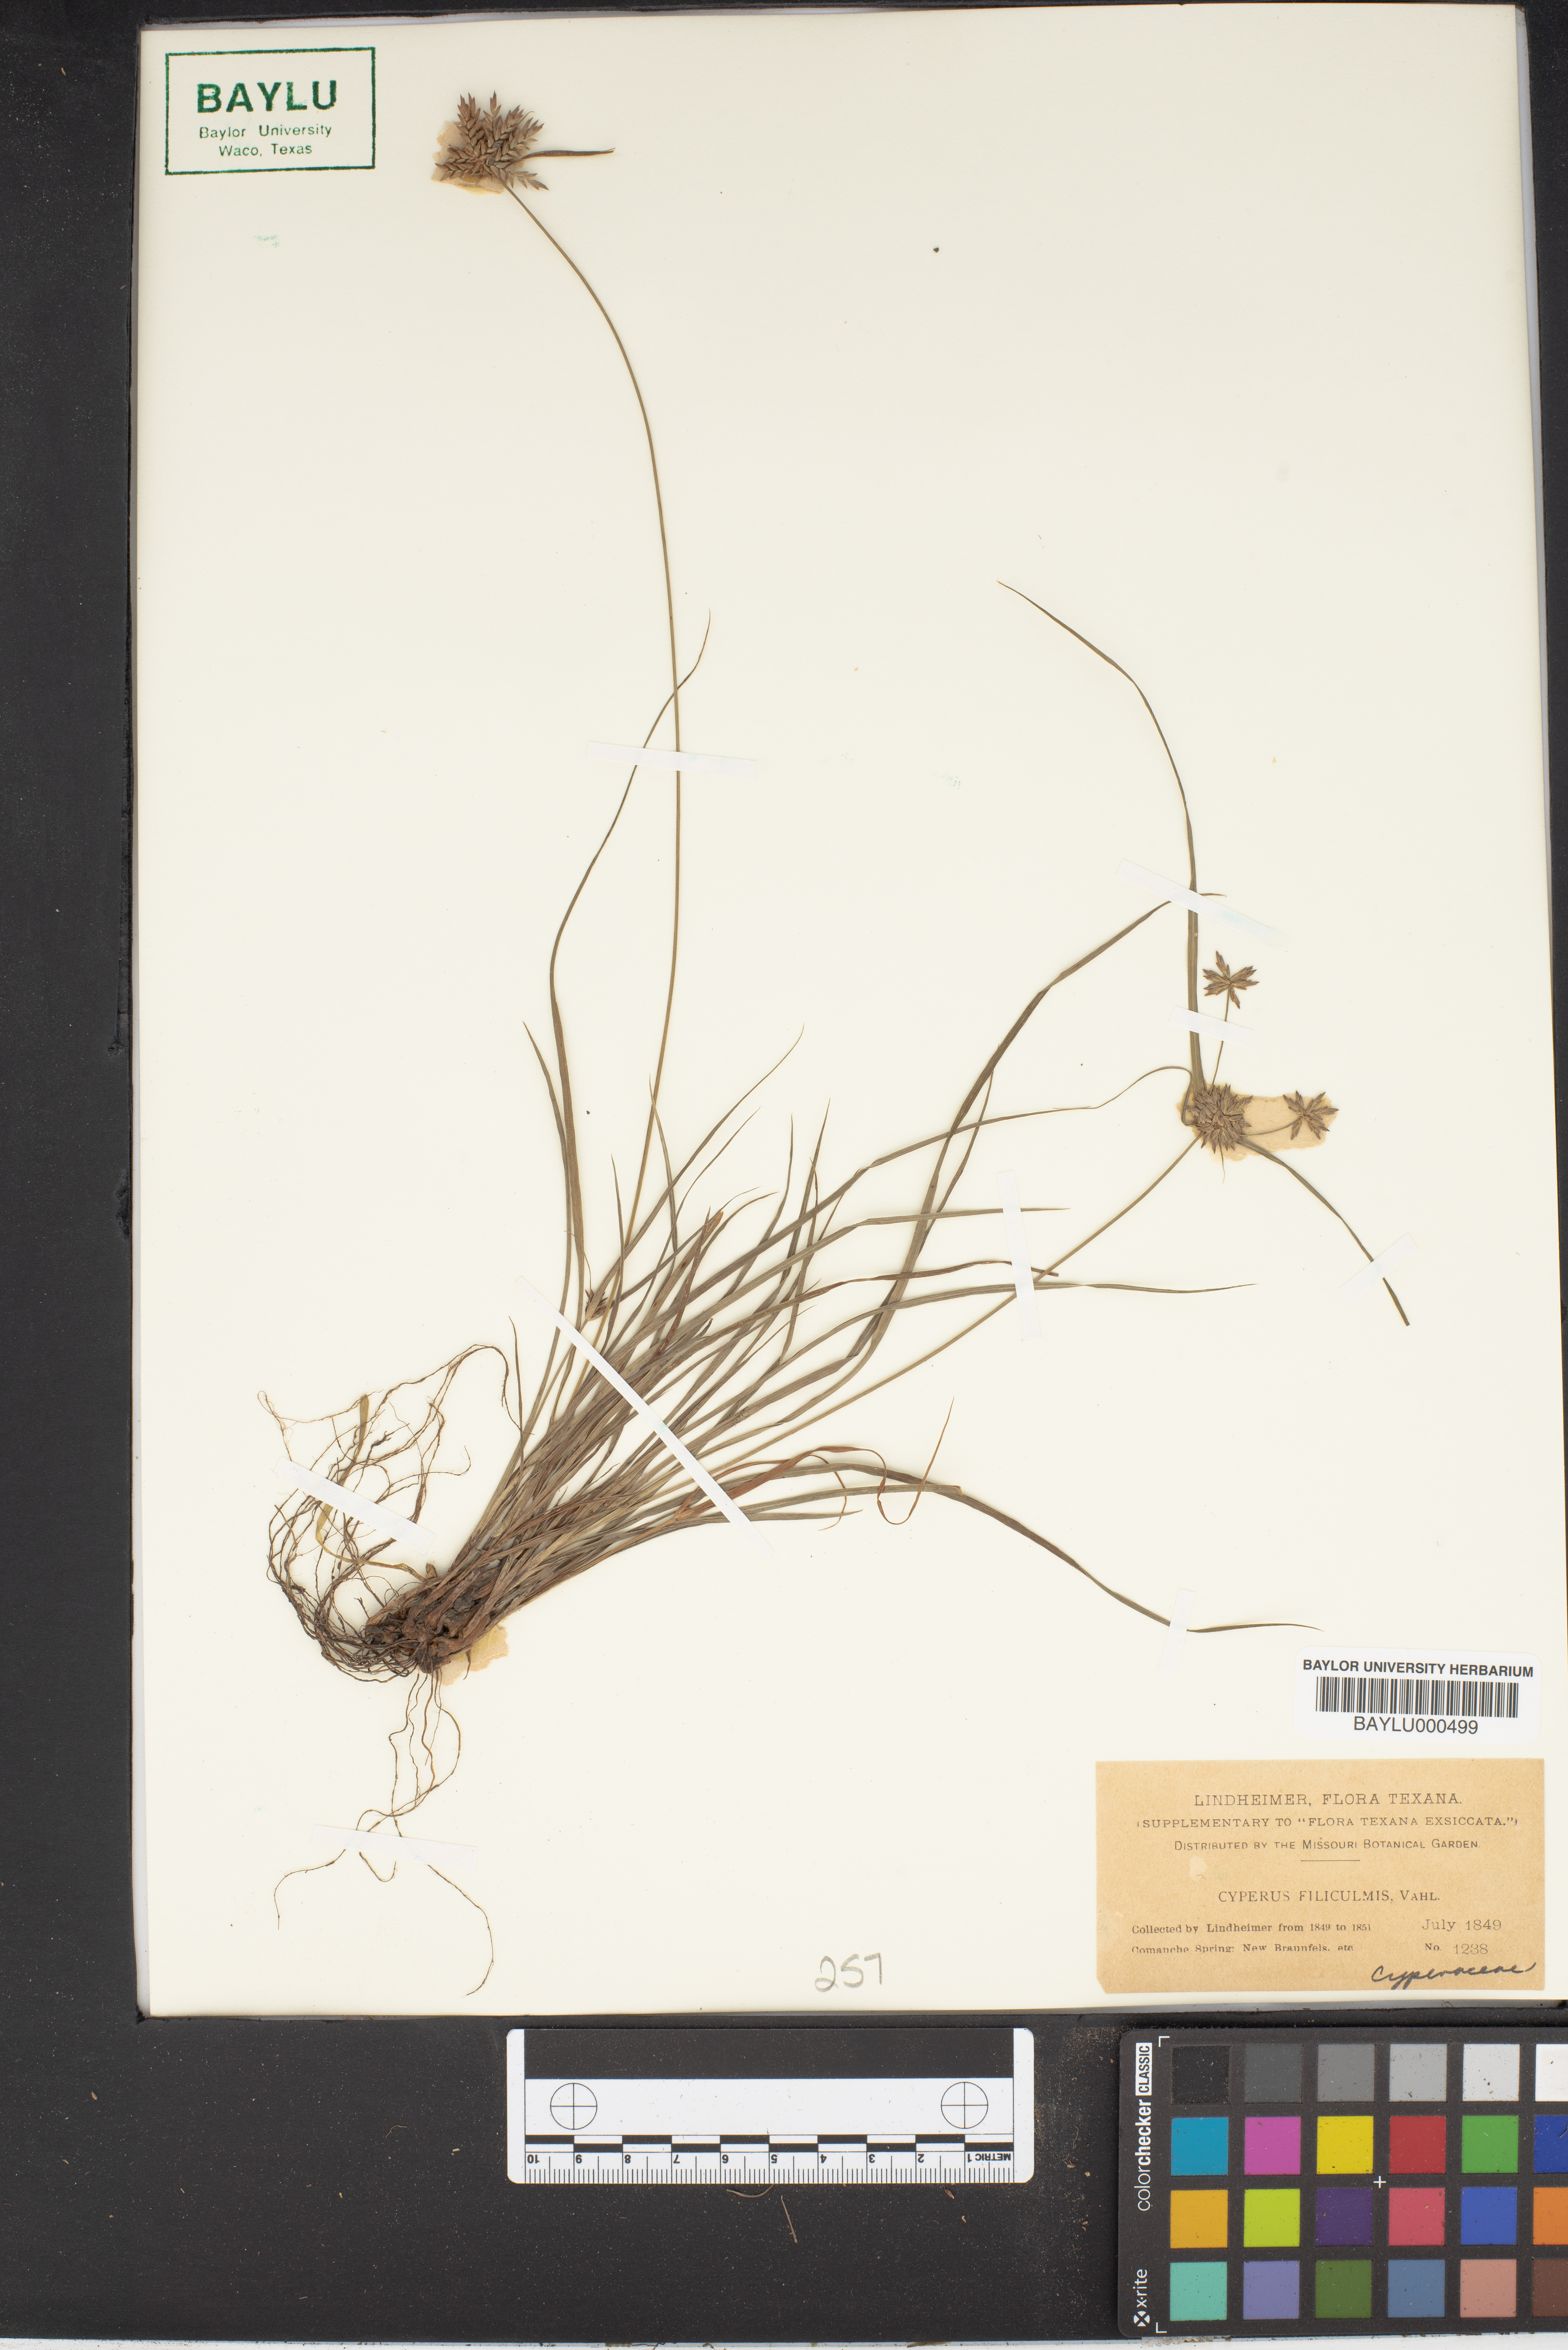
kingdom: Plantae
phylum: Tracheophyta
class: Liliopsida
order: Poales
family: Cyperaceae
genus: Cyperus
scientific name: Cyperus lanceolatus
